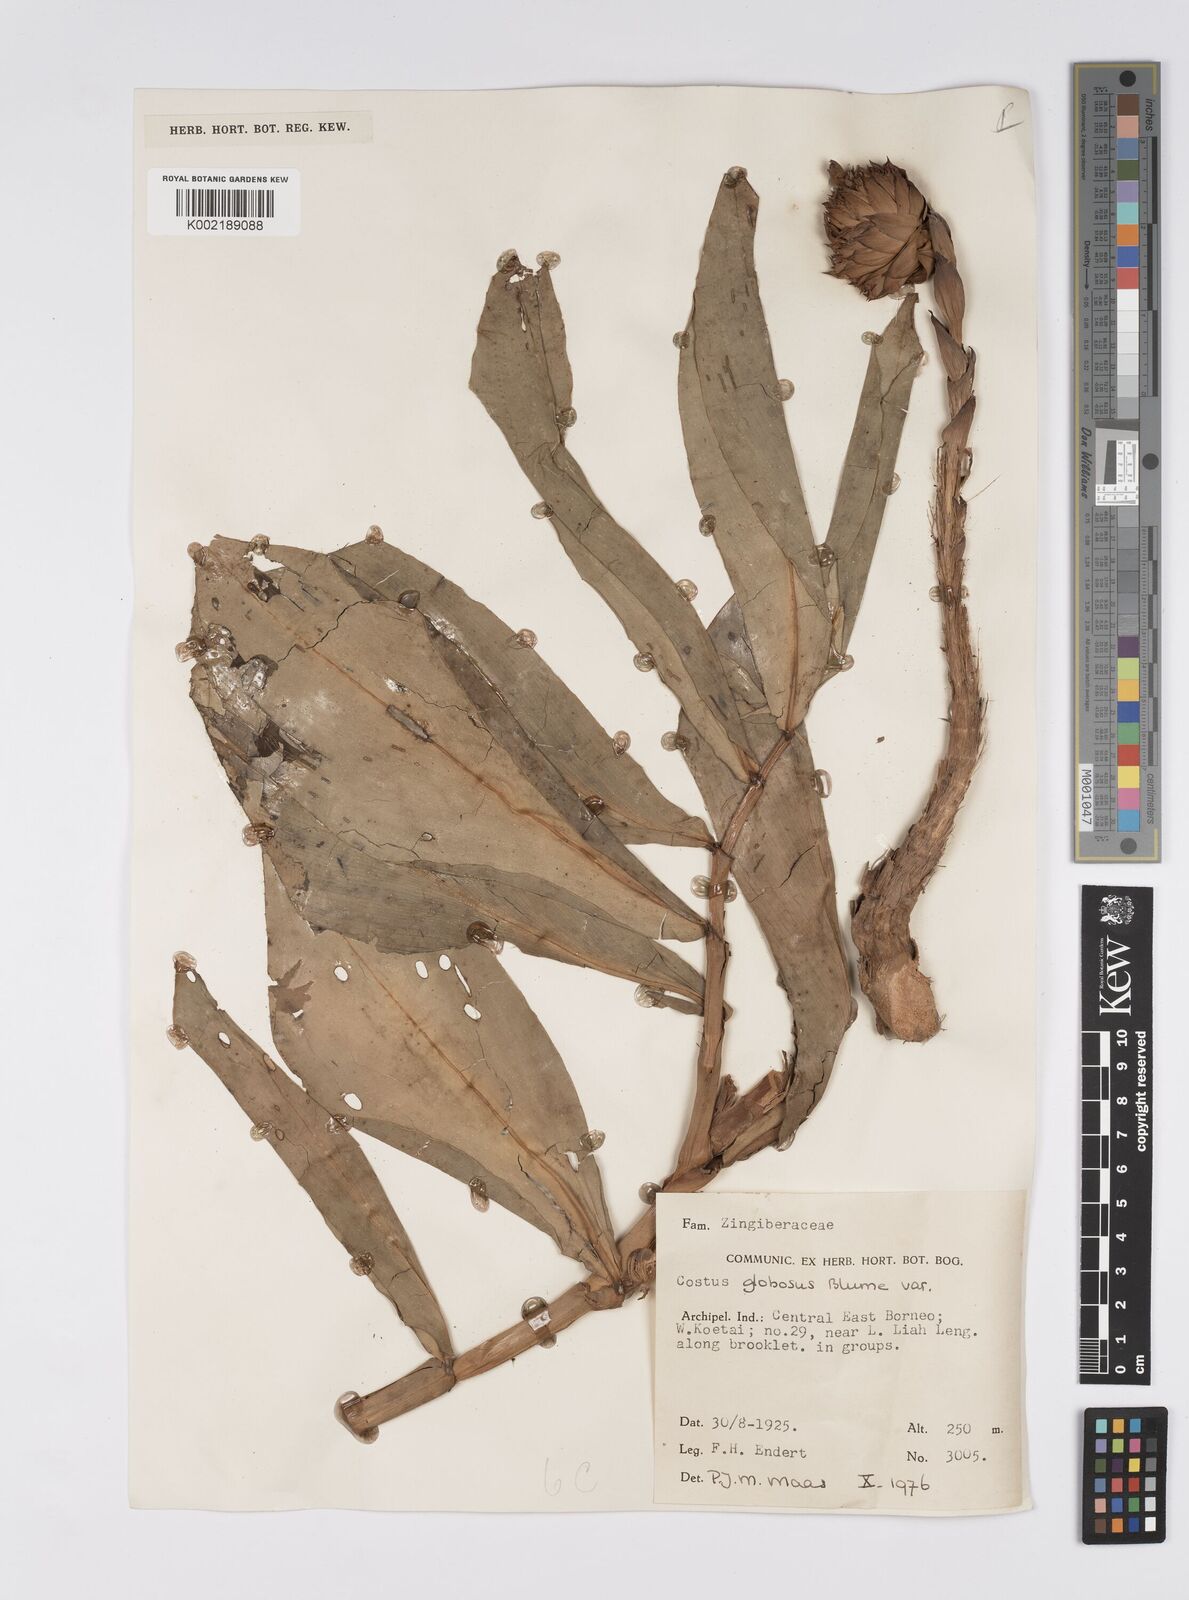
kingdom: Plantae
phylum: Tracheophyta
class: Liliopsida
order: Zingiberales
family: Costaceae
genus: Hellenia
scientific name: Hellenia globosa
